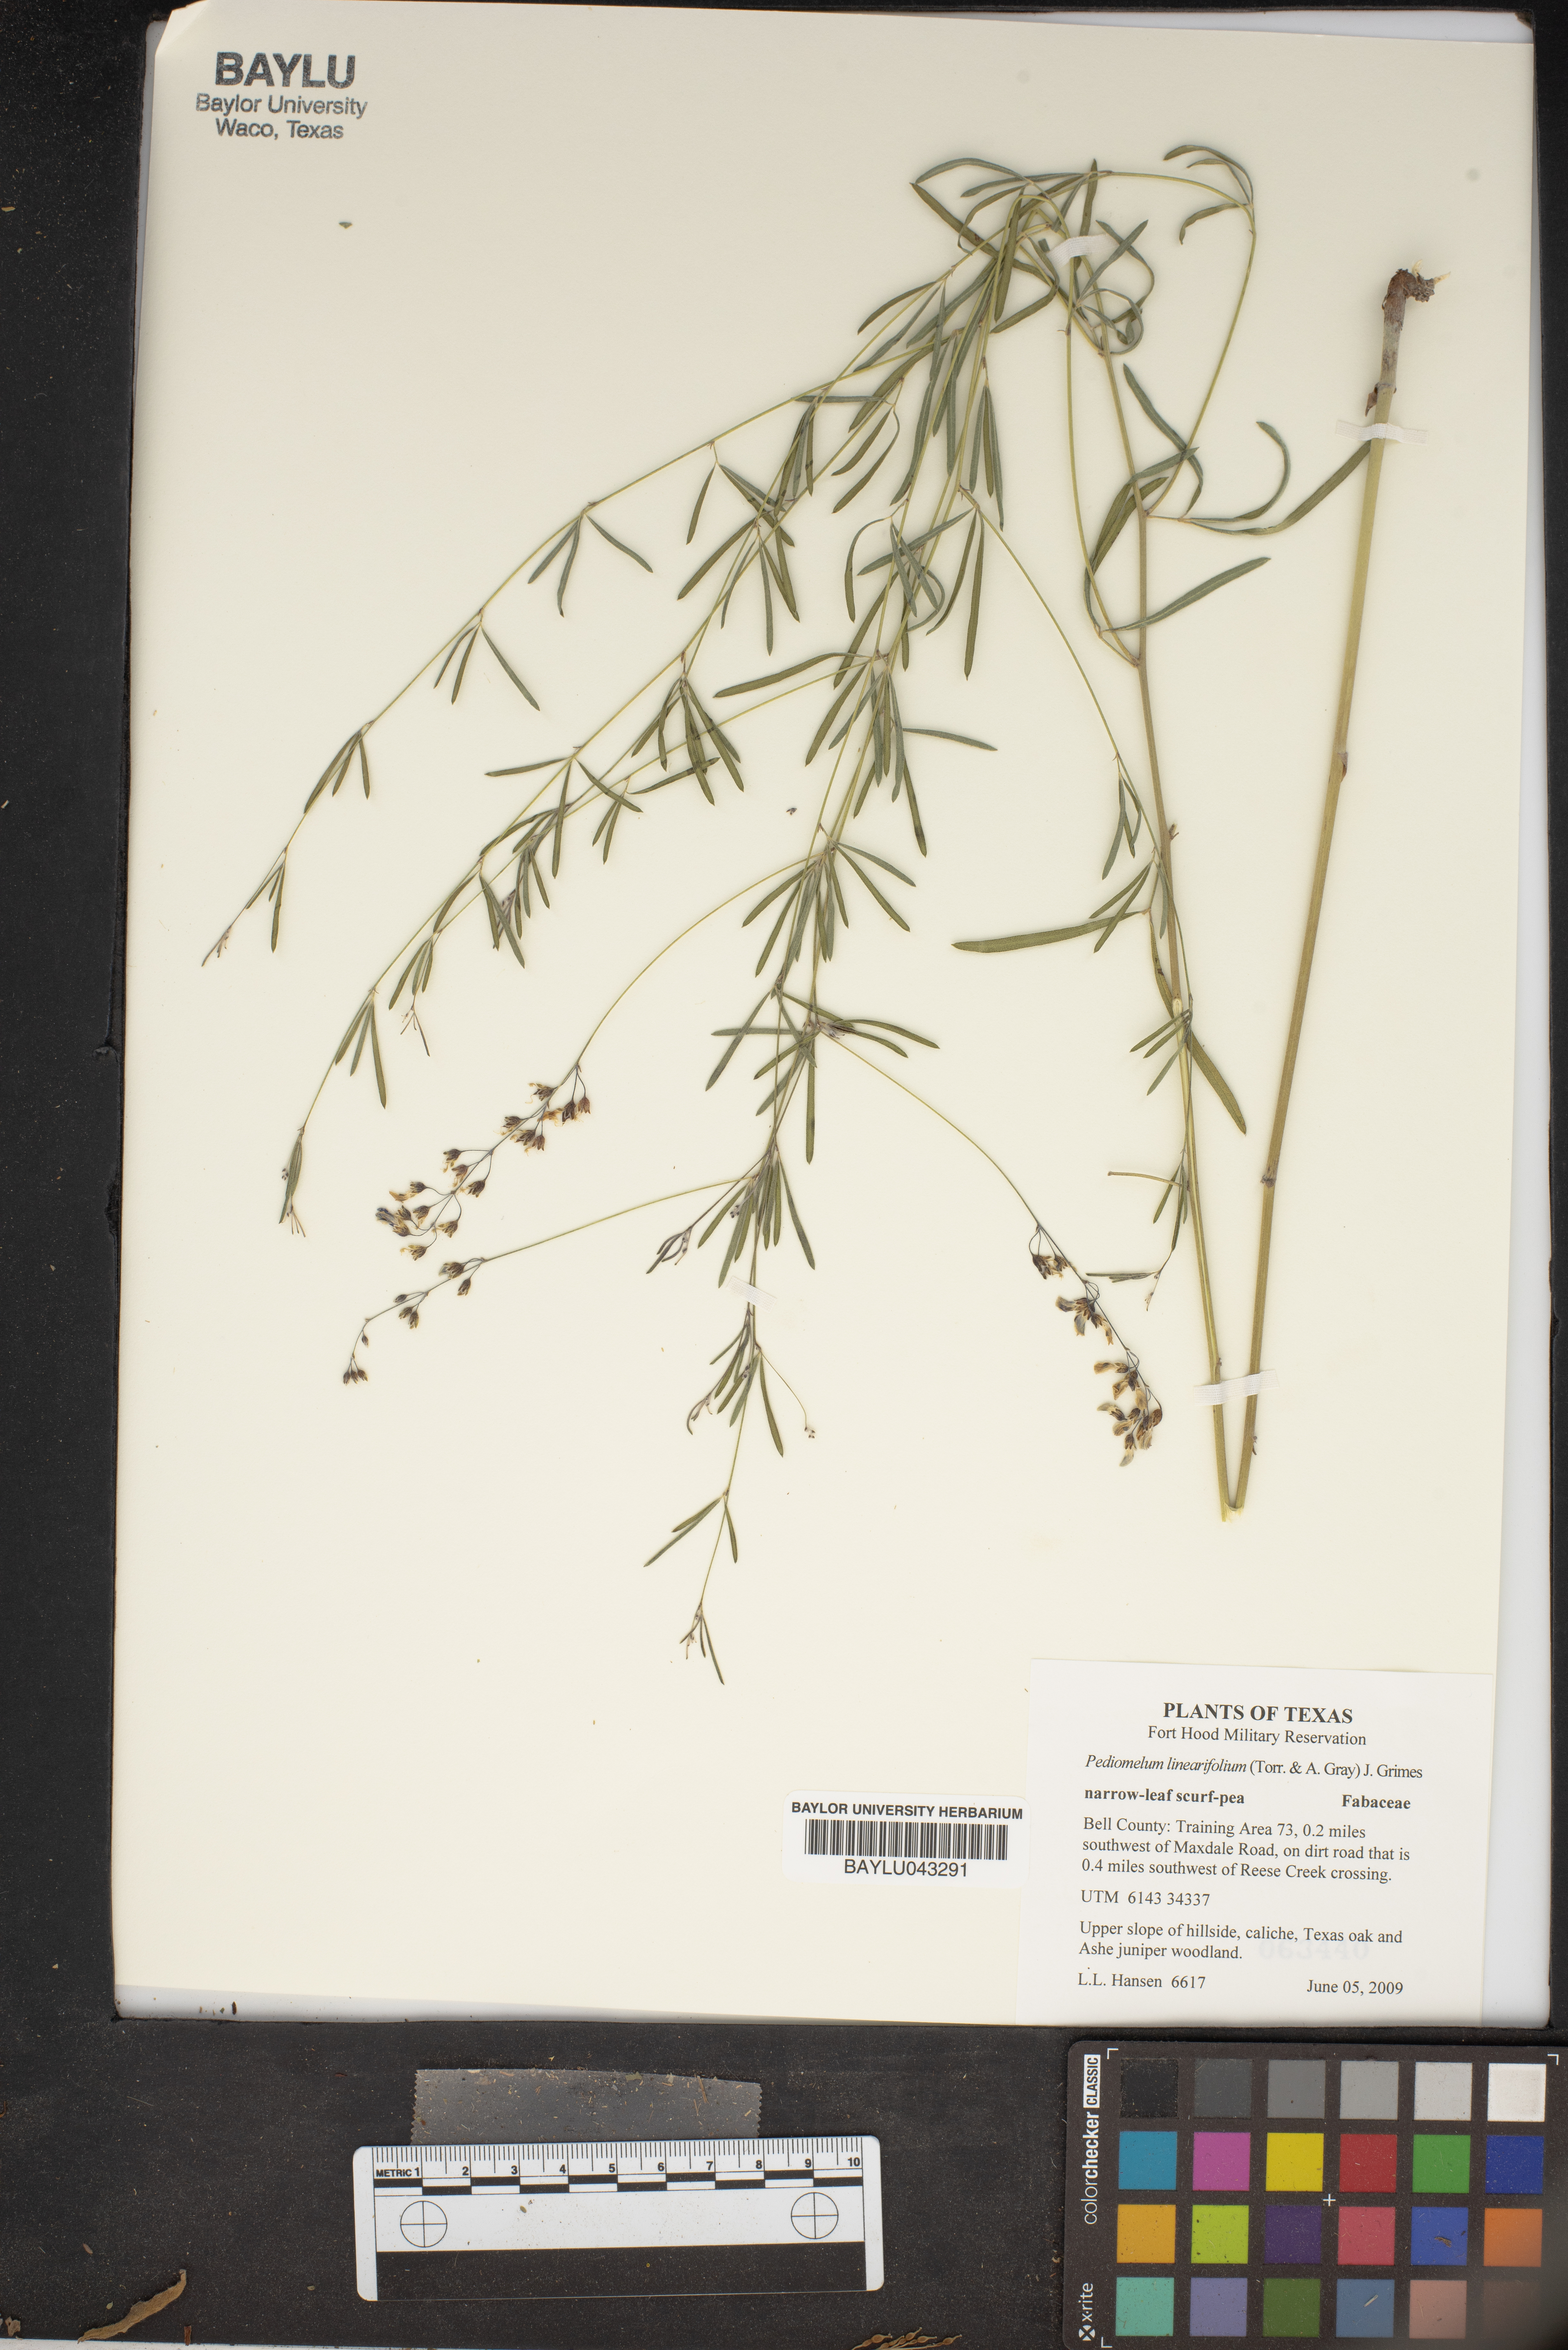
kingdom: Plantae
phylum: Tracheophyta
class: Magnoliopsida
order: Fabales
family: Fabaceae
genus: Pediomelum
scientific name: Pediomelum linearifolium
